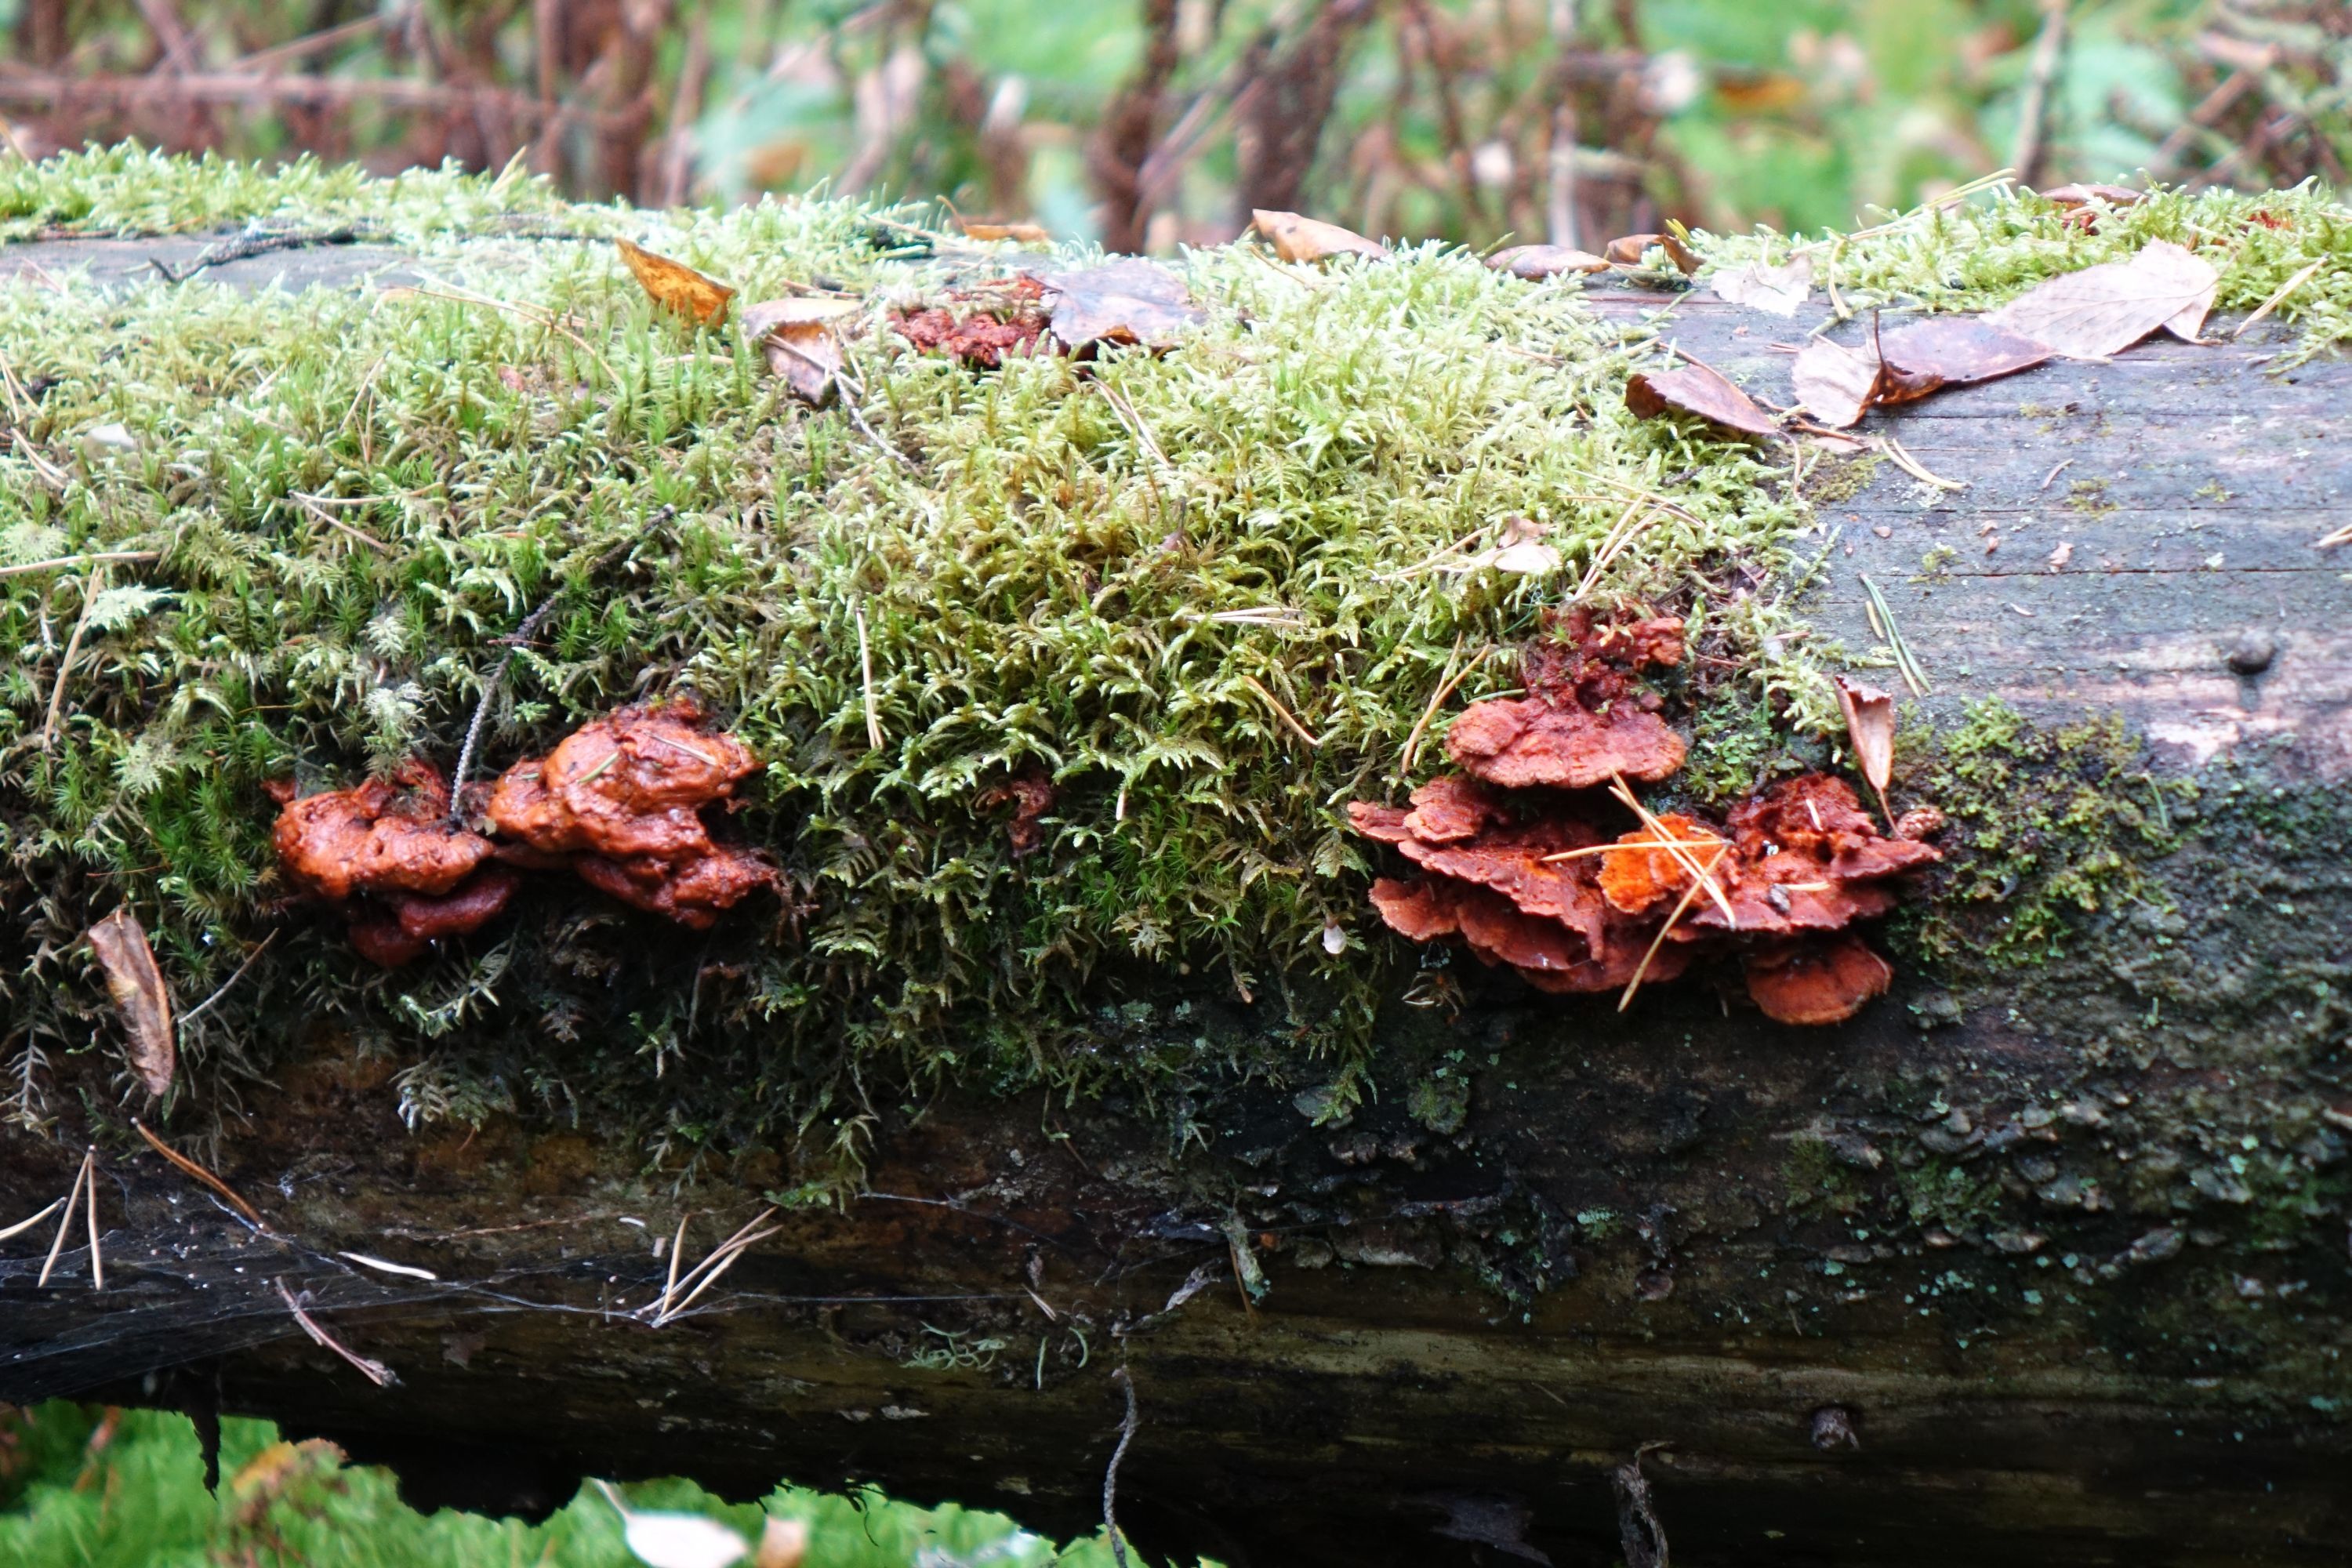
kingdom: Fungi
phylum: Basidiomycota
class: Agaricomycetes
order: Polyporales
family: Pycnoporellaceae
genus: Pycnoporellus
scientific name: Pycnoporellus fulgens
